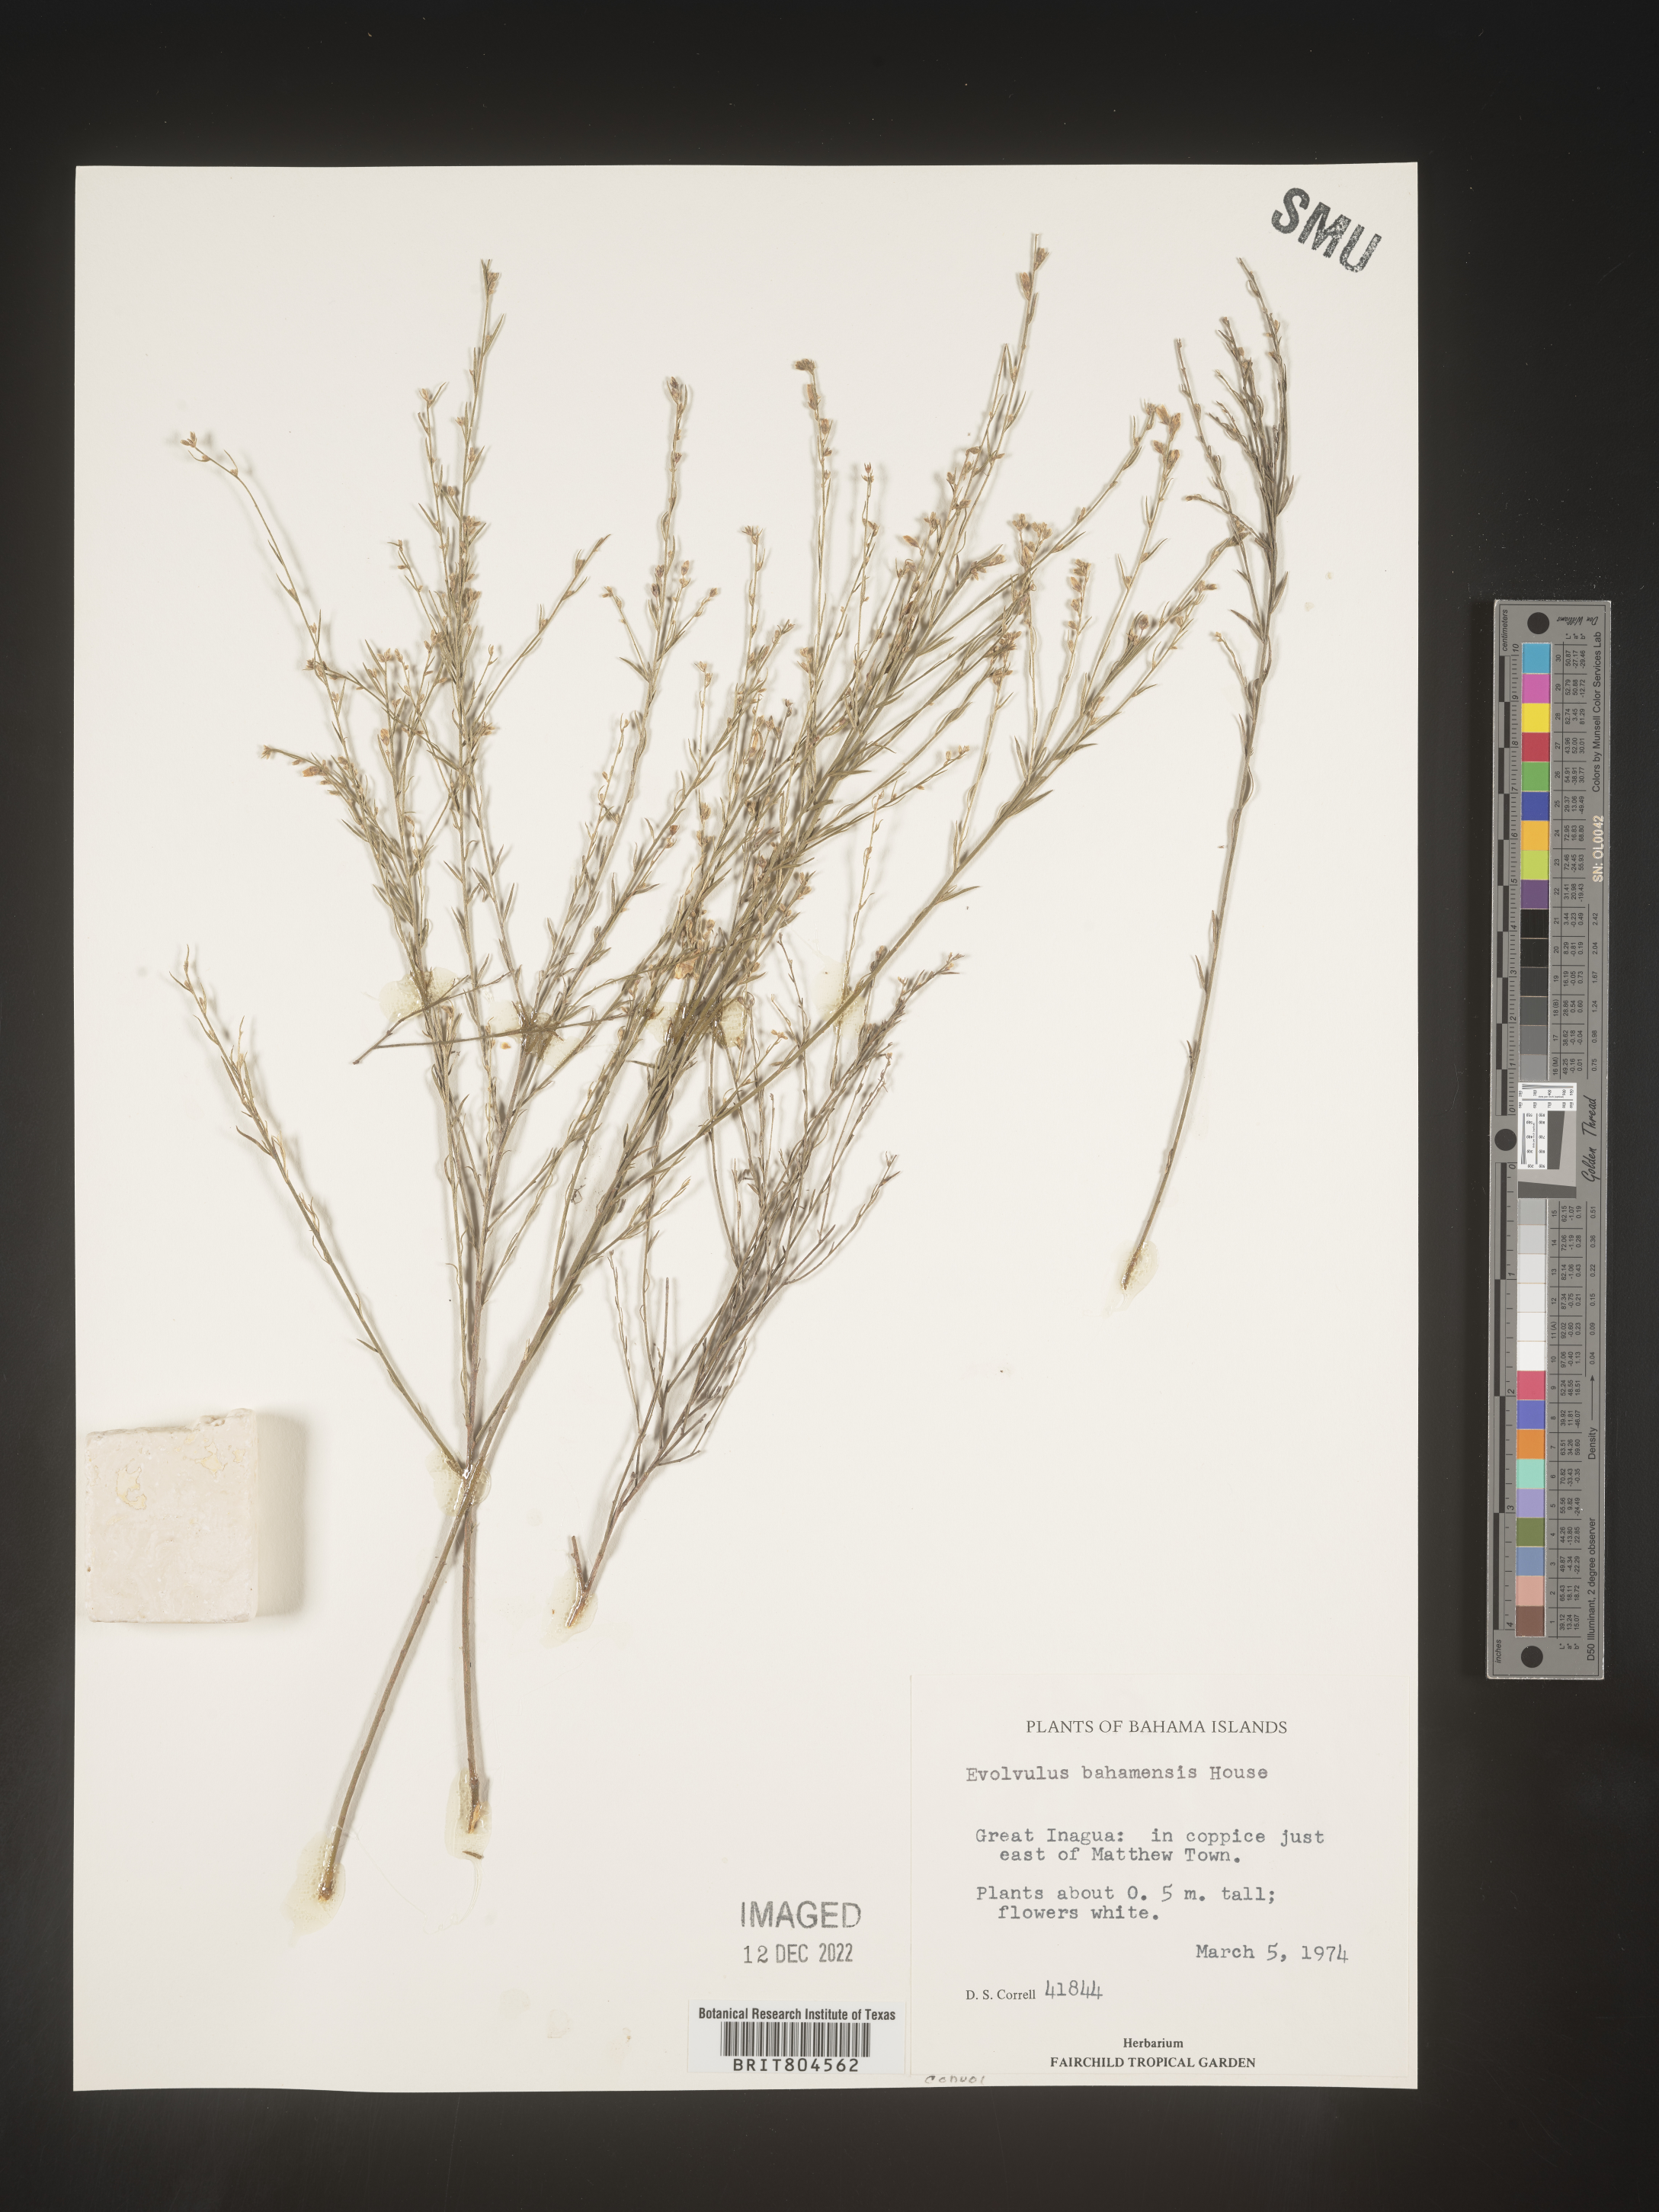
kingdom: Plantae
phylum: Tracheophyta
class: Magnoliopsida
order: Solanales
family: Convolvulaceae
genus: Evolvulus
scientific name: Evolvulus
